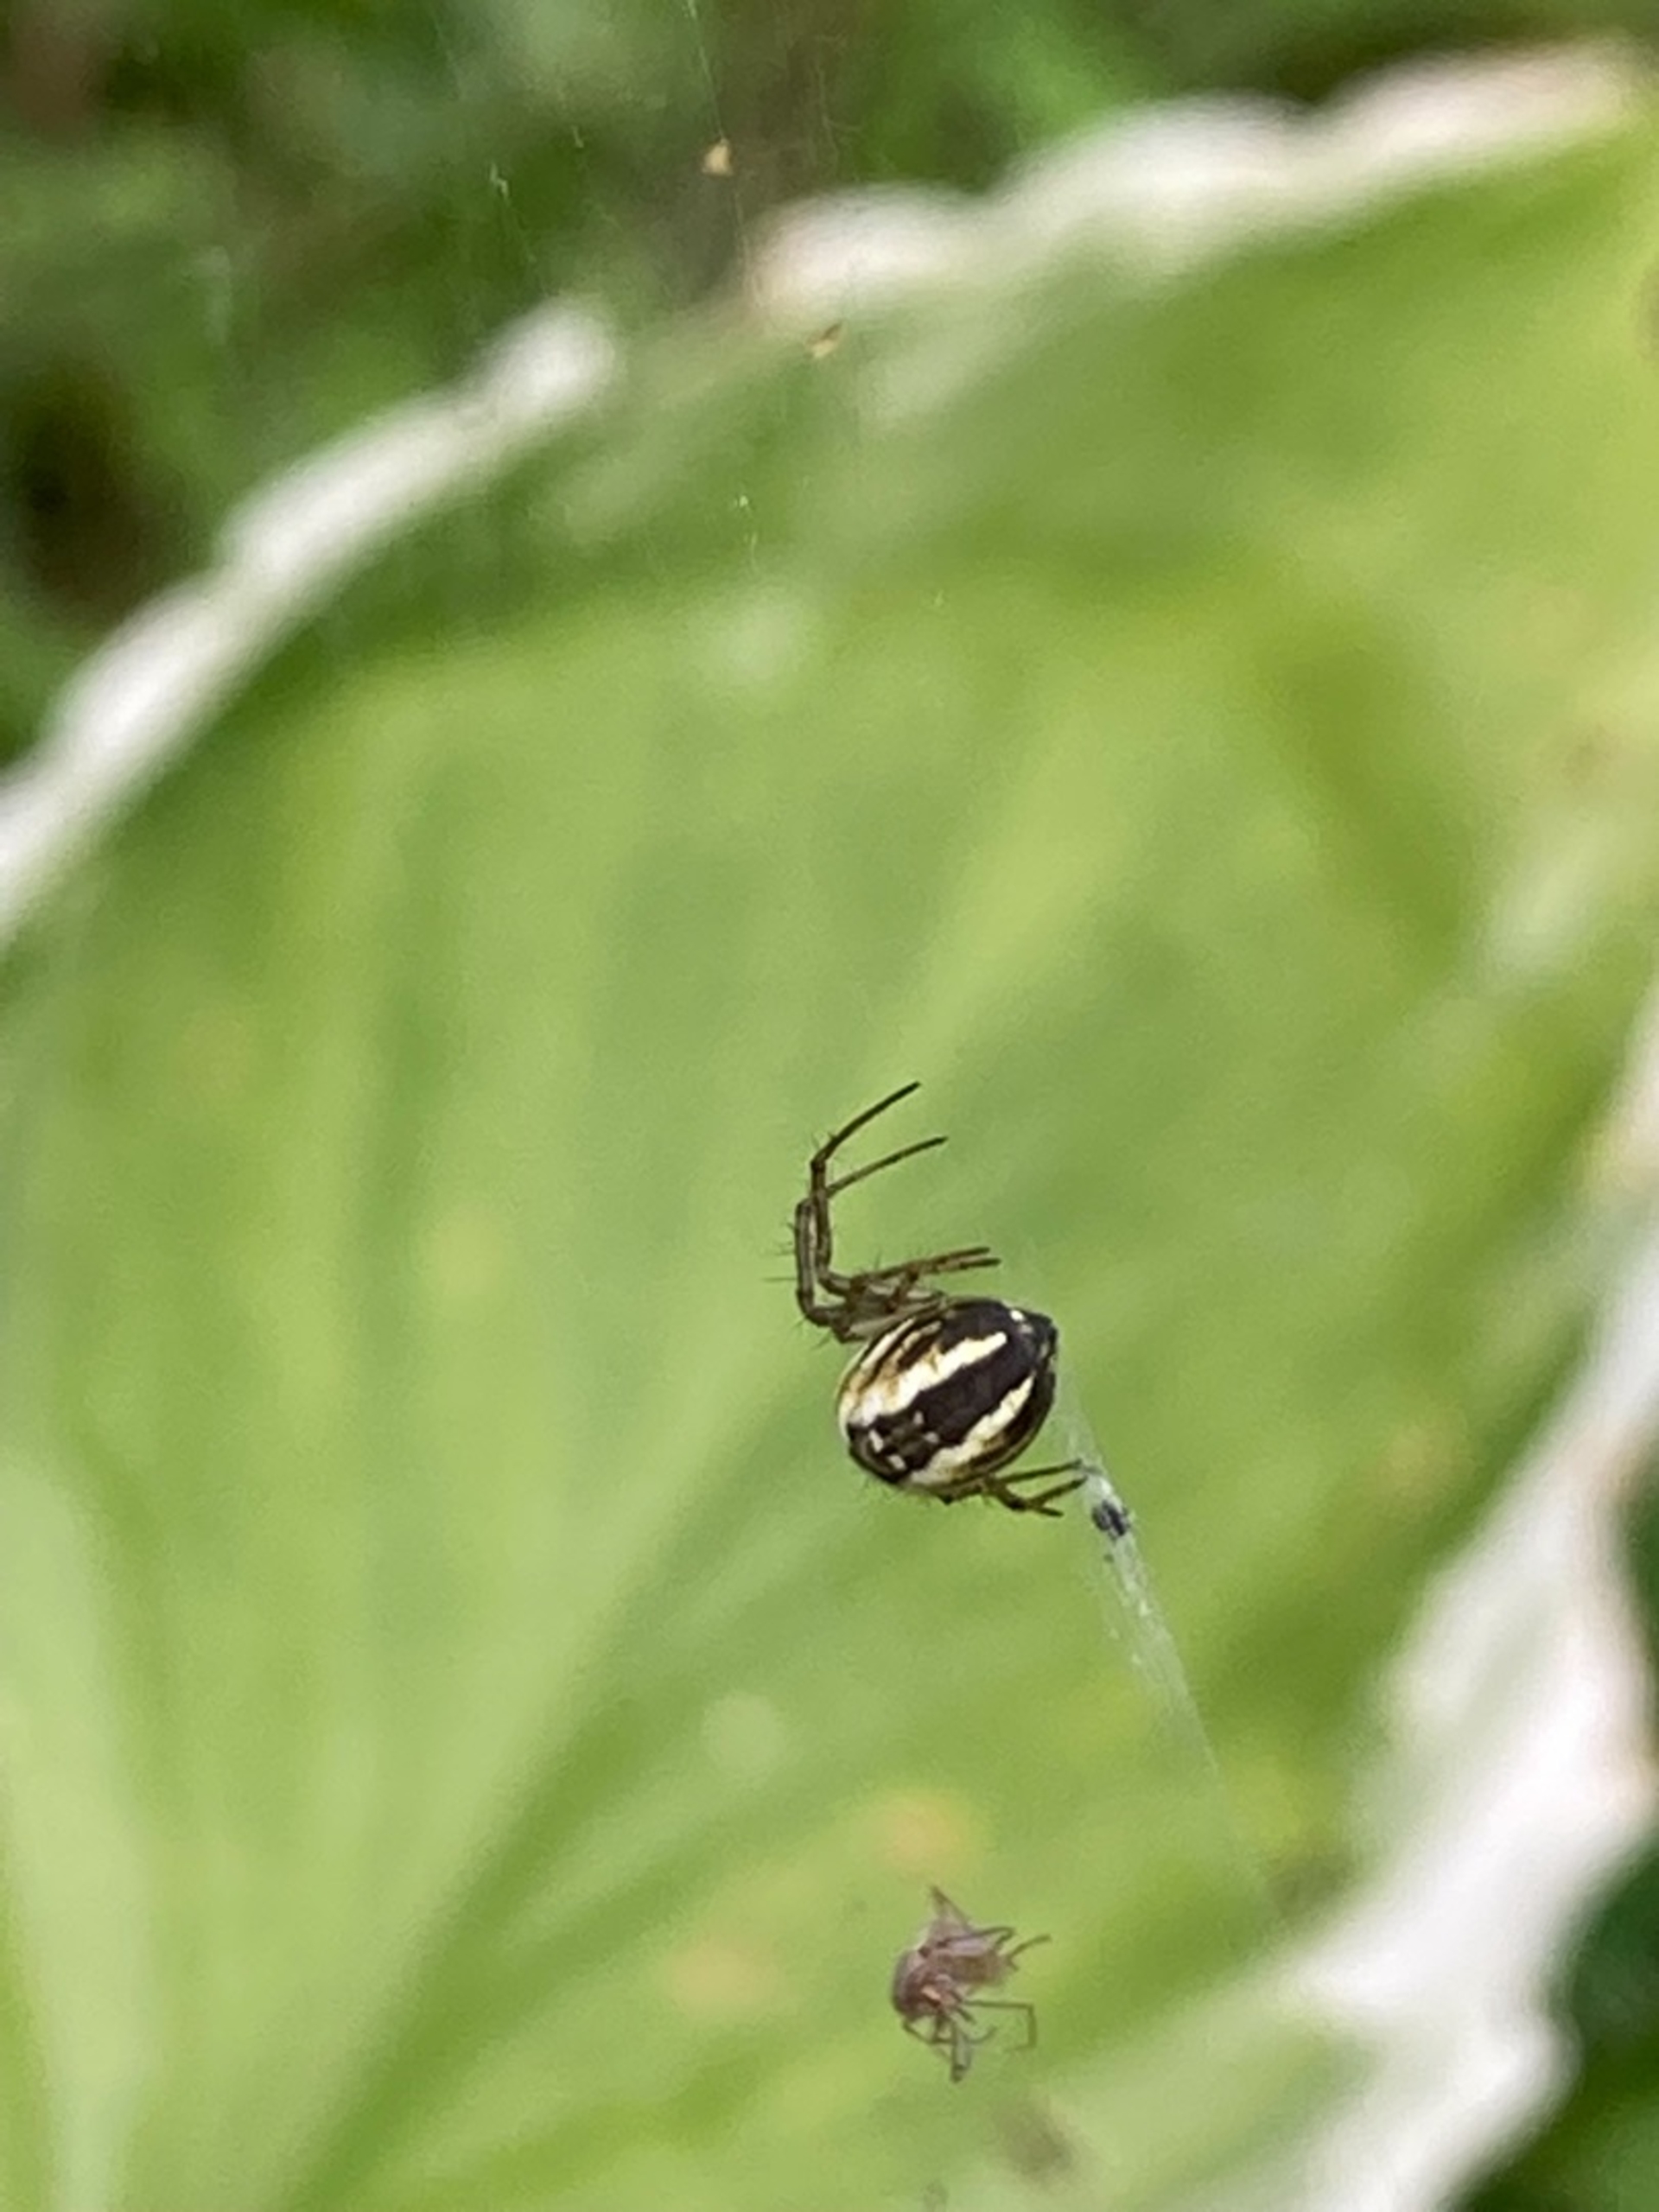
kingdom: Animalia
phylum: Arthropoda
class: Arachnida
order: Araneae
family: Araneidae
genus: Mangora
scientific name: Mangora acalypha
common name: Sortstribet hedehjulspinder
